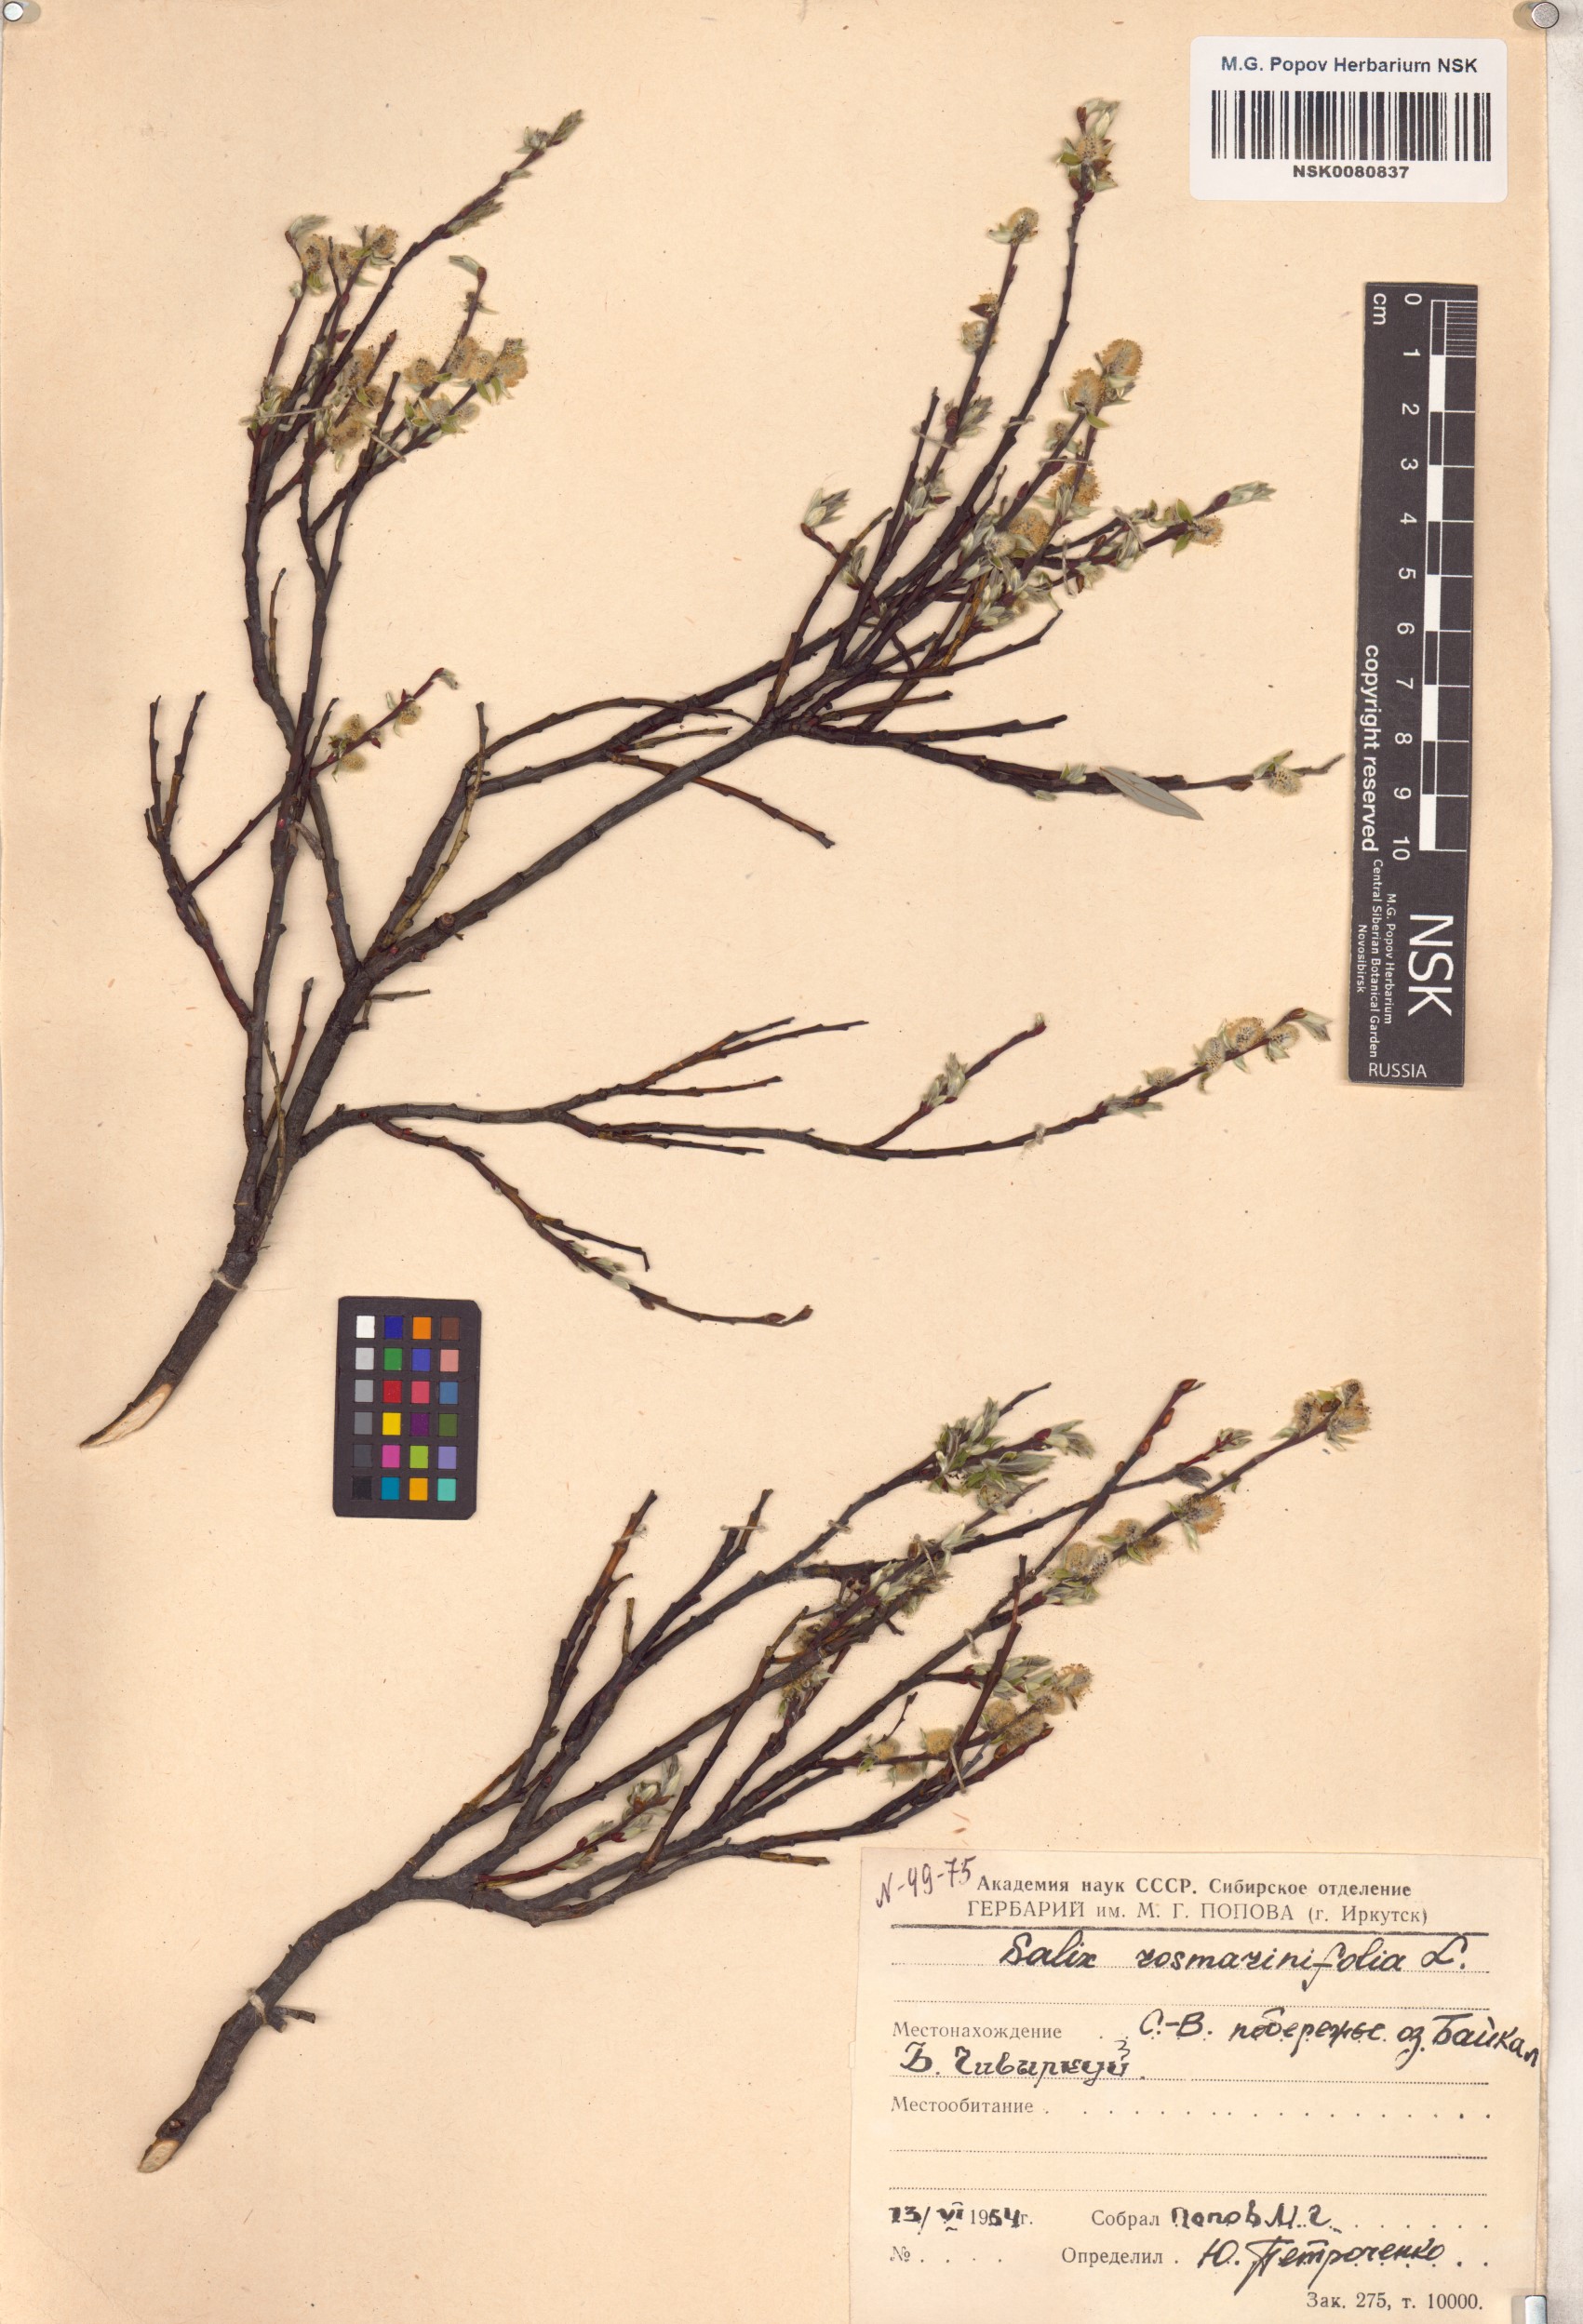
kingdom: Plantae
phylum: Tracheophyta
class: Magnoliopsida
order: Malpighiales
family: Salicaceae
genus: Salix
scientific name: Salix rosmarinifolia
